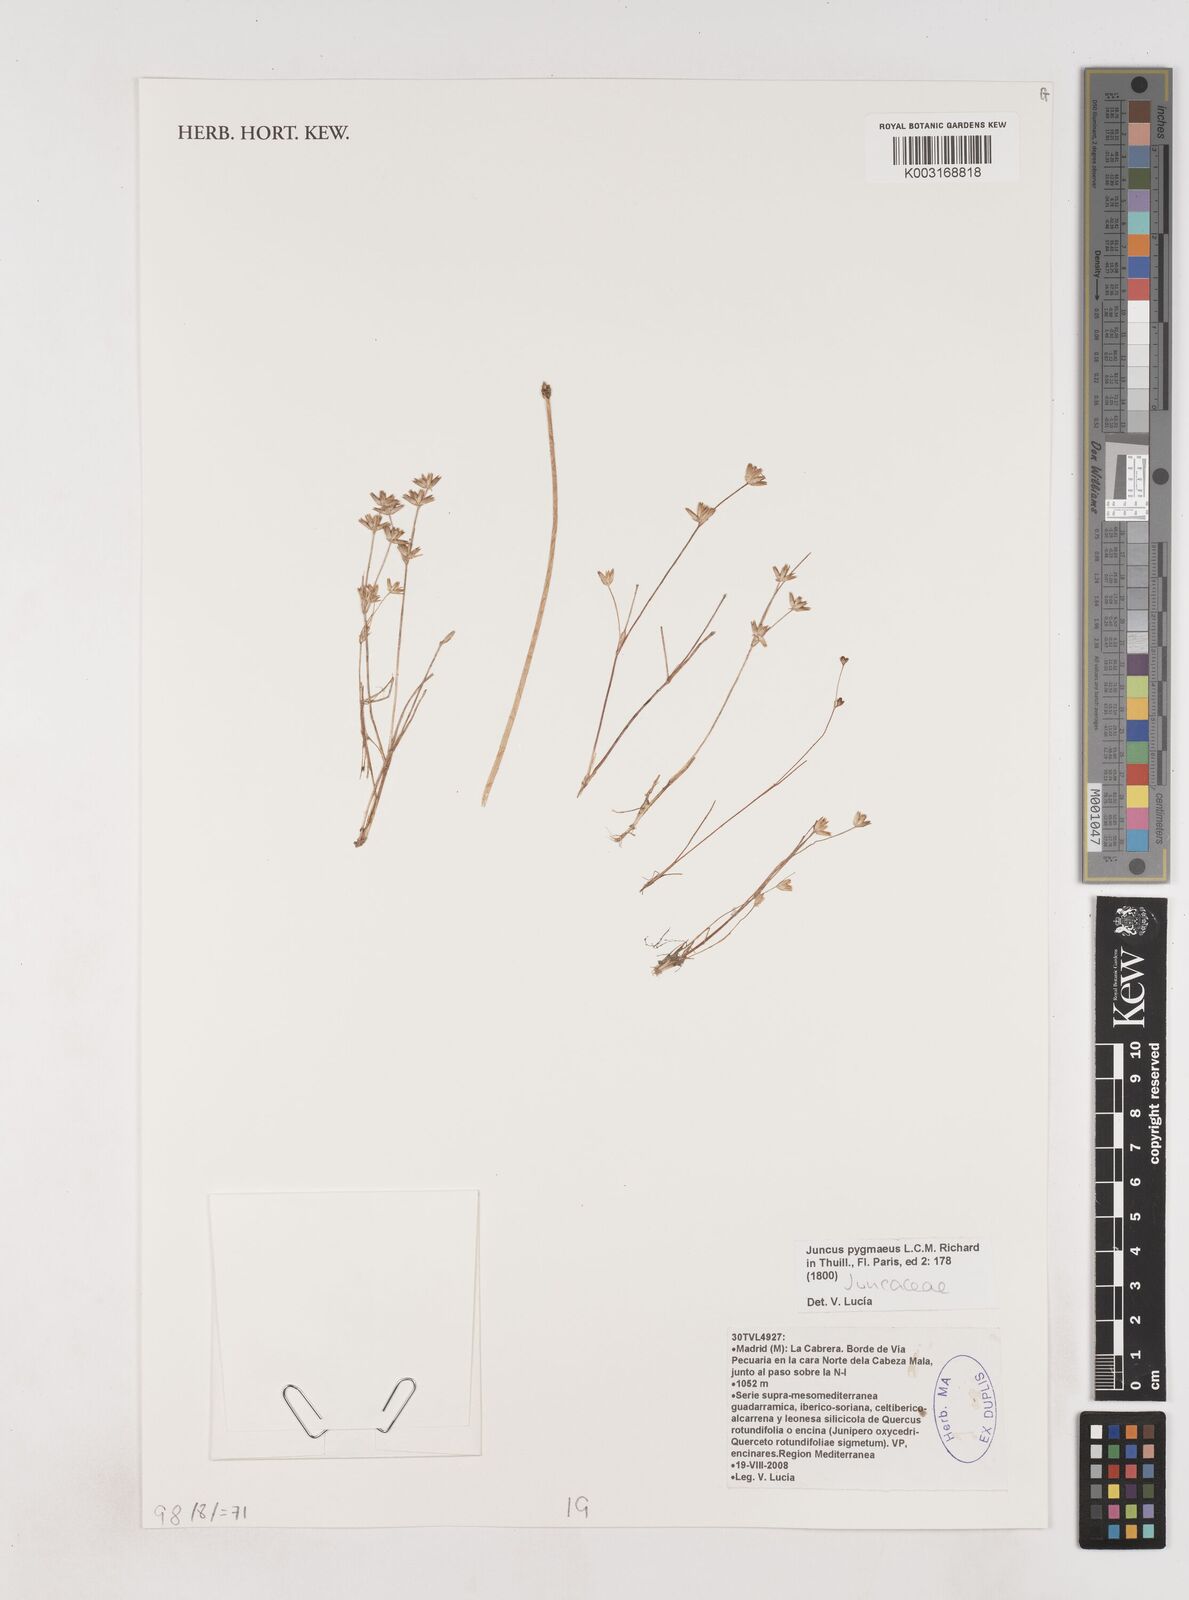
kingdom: Plantae
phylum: Tracheophyta
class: Liliopsida
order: Poales
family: Juncaceae
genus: Juncus
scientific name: Juncus pygmaeus
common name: Pigmy rush
